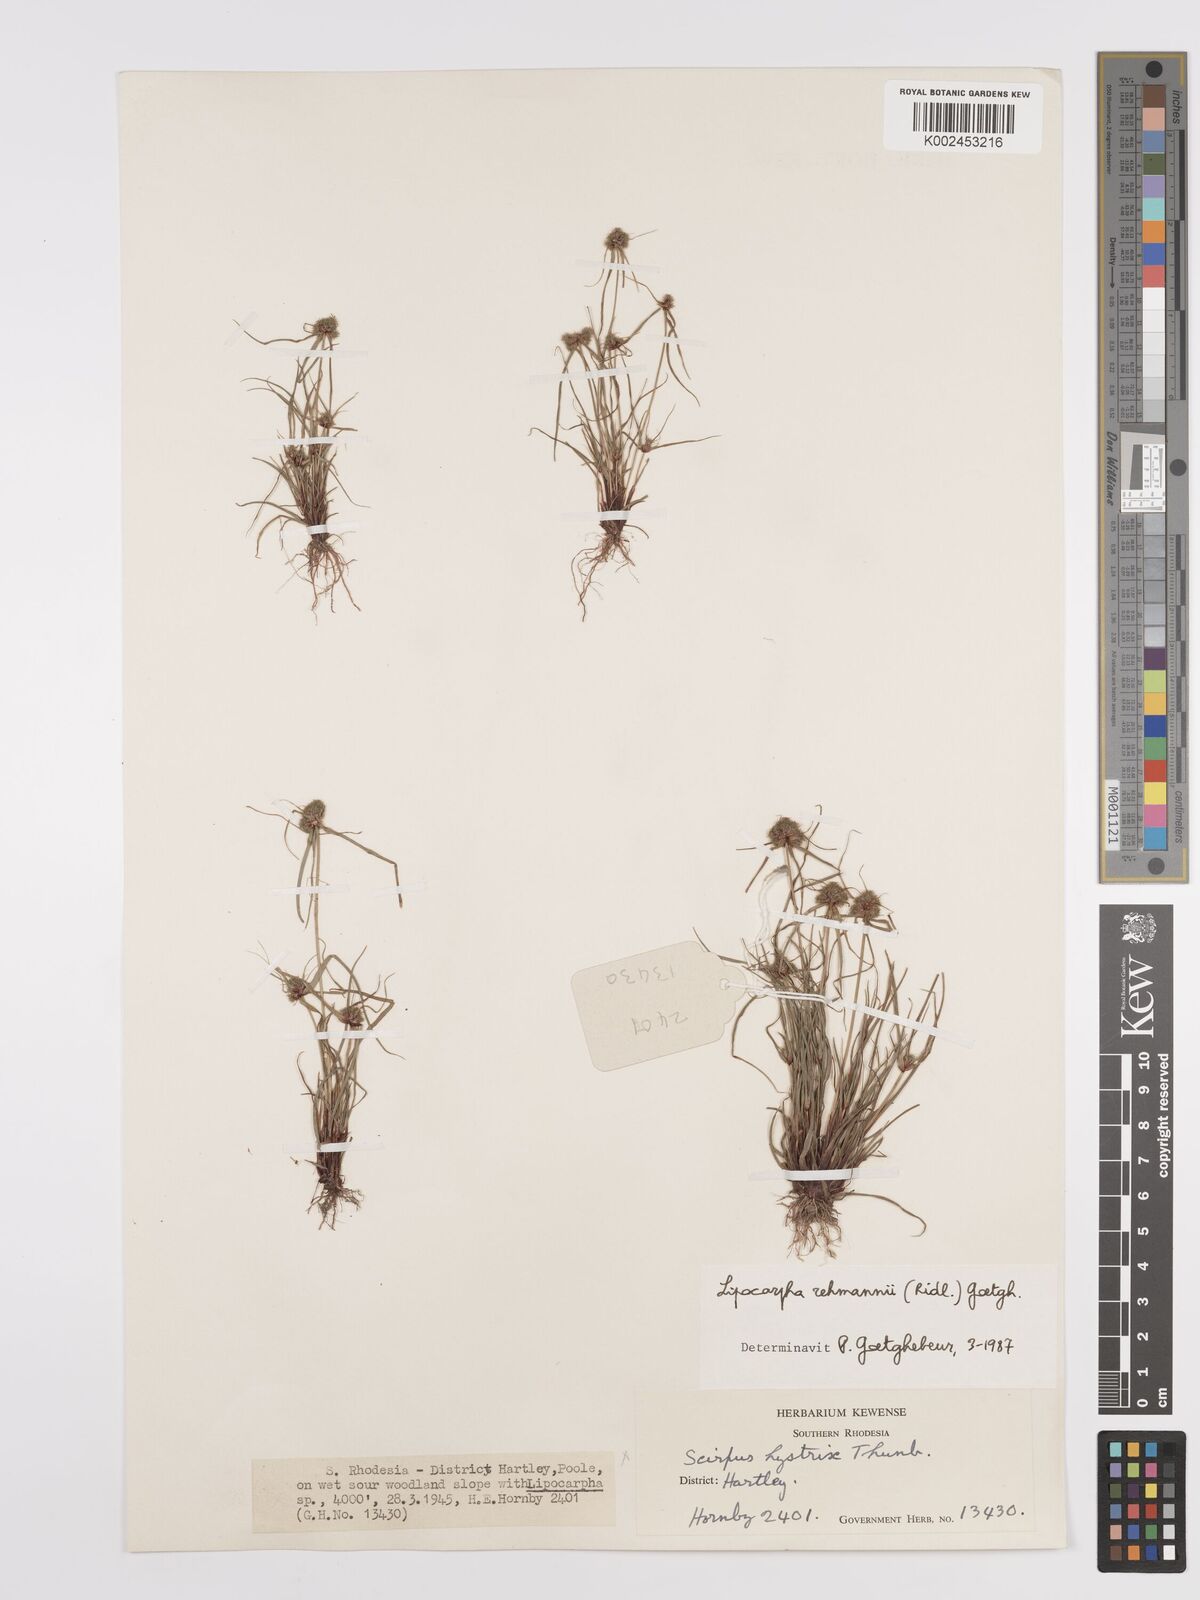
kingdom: Plantae
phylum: Tracheophyta
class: Liliopsida
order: Poales
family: Cyperaceae
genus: Cyperus
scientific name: Cyperus sanguinolentus
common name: Purpleglume flatsedge
